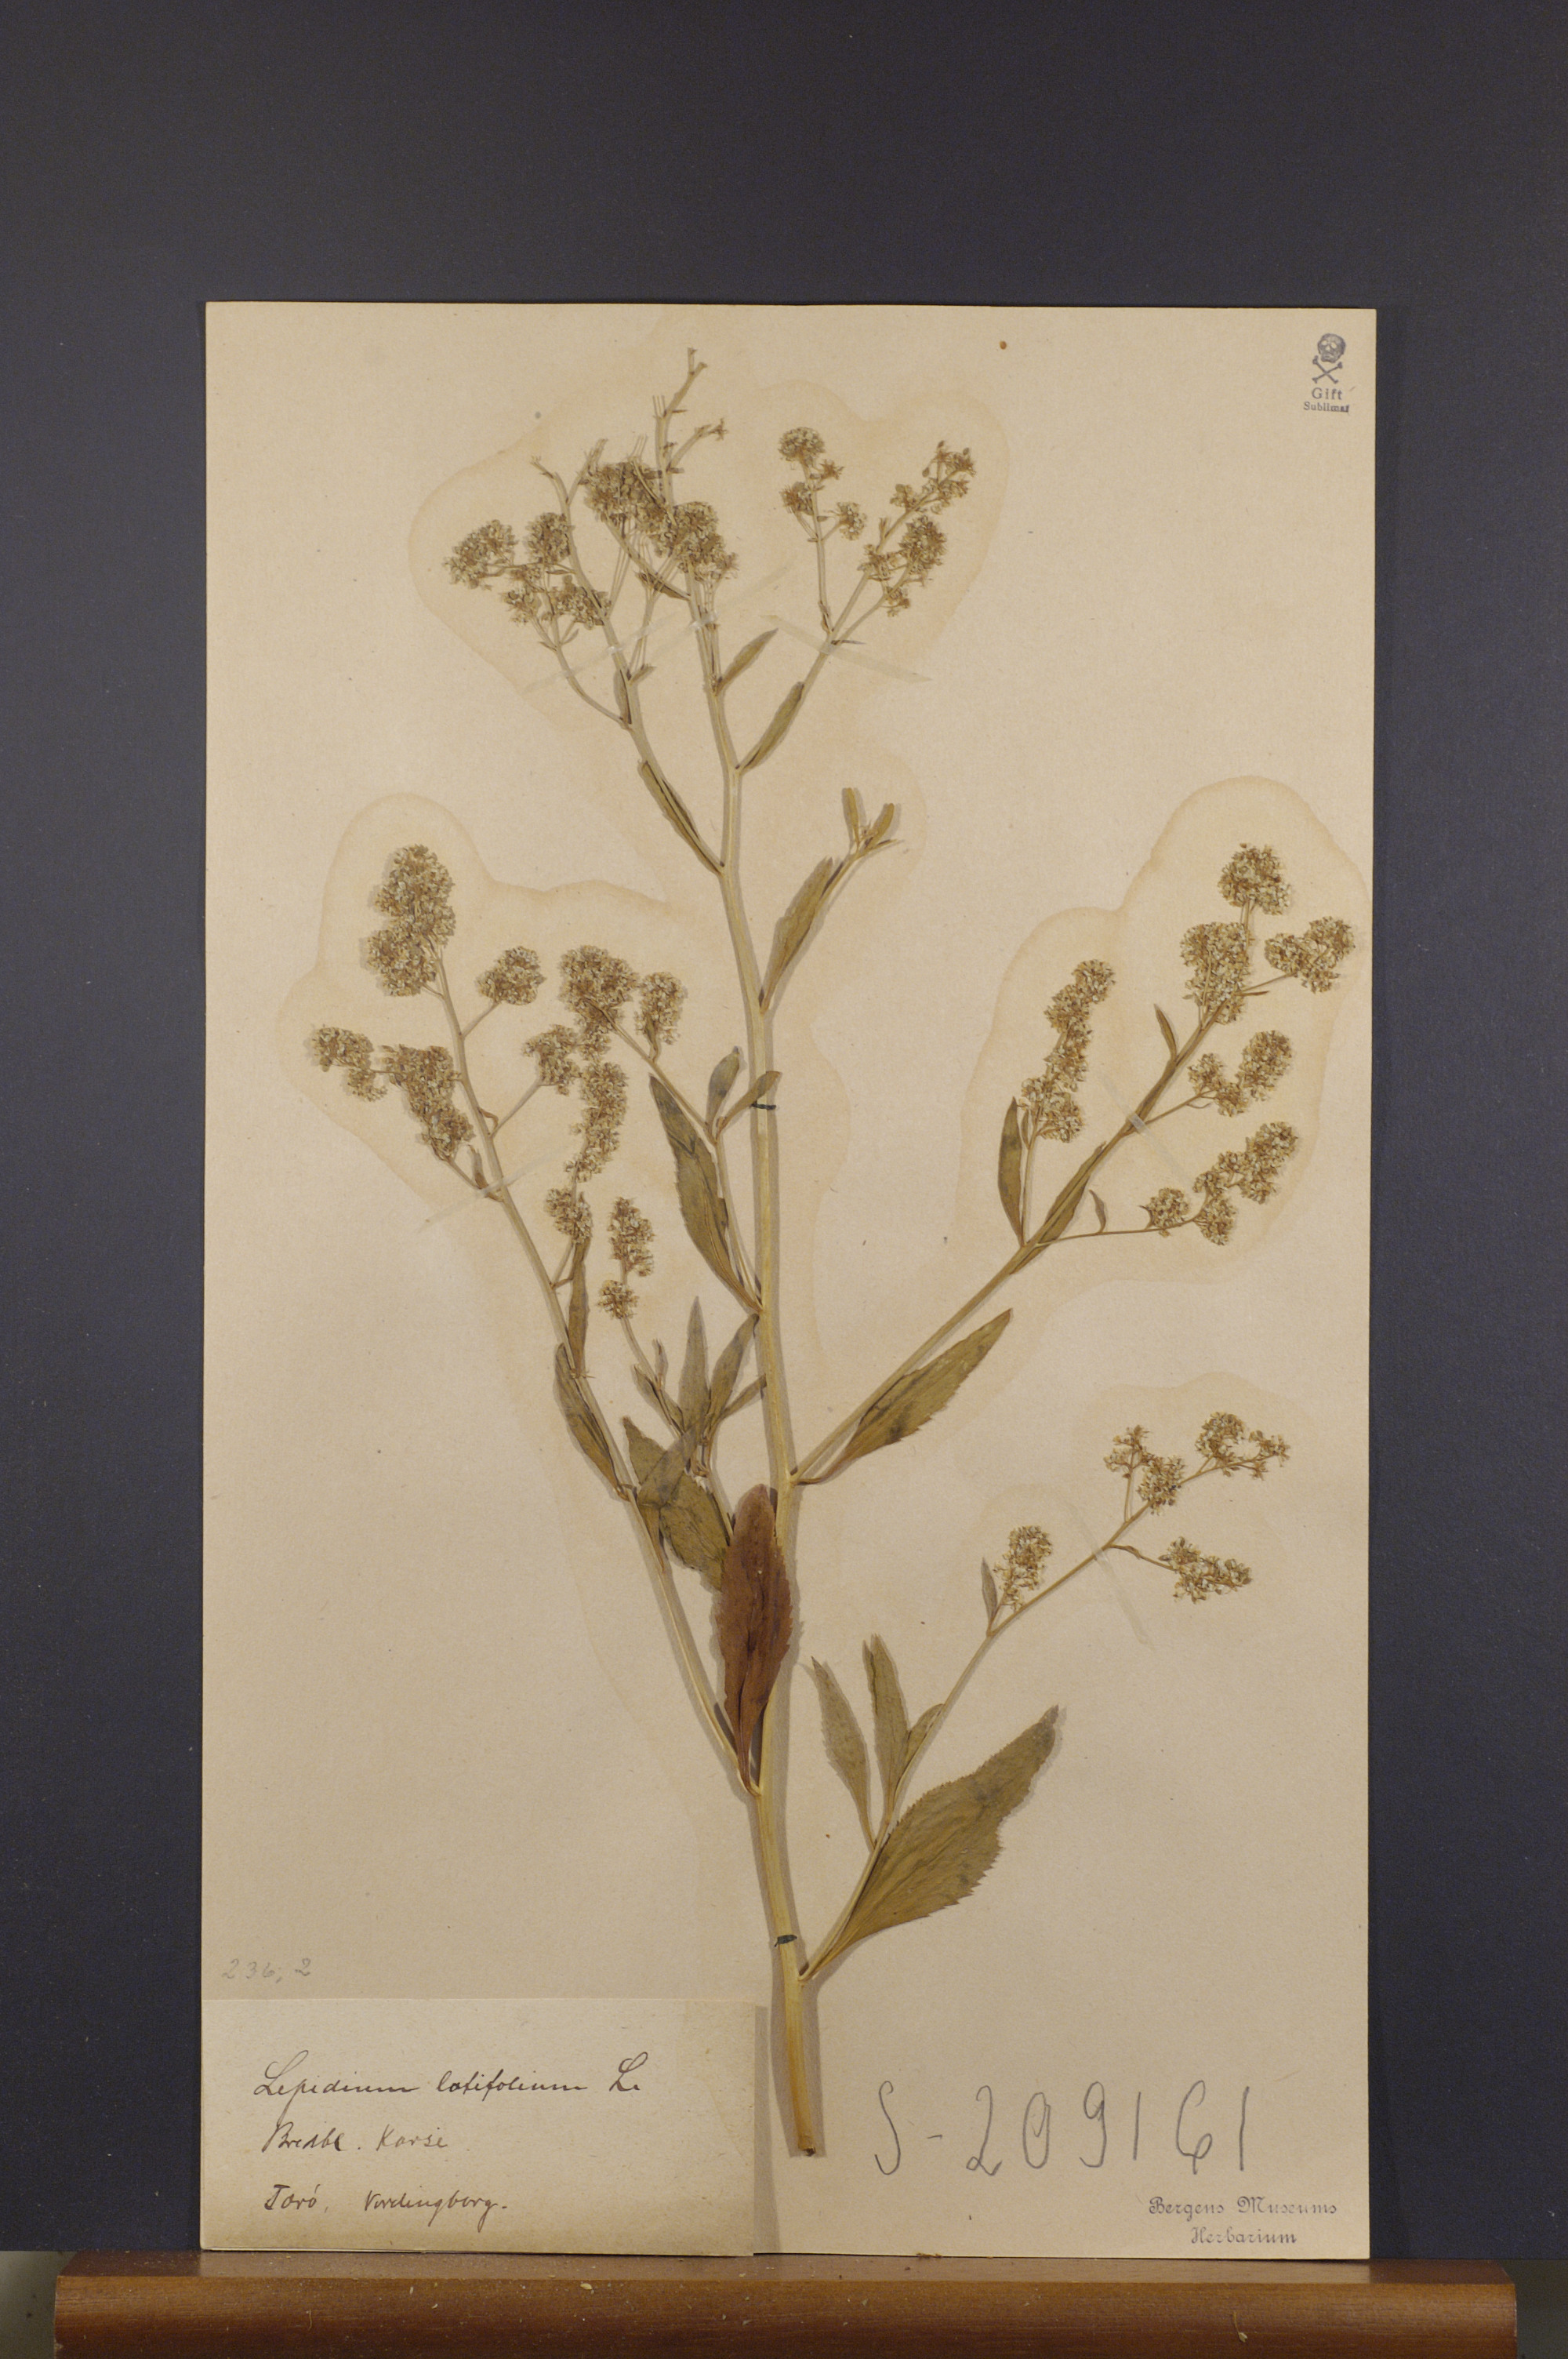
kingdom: Plantae
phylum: Tracheophyta
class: Magnoliopsida
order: Brassicales
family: Brassicaceae
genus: Lepidium
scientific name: Lepidium latifolium
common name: Dittander
